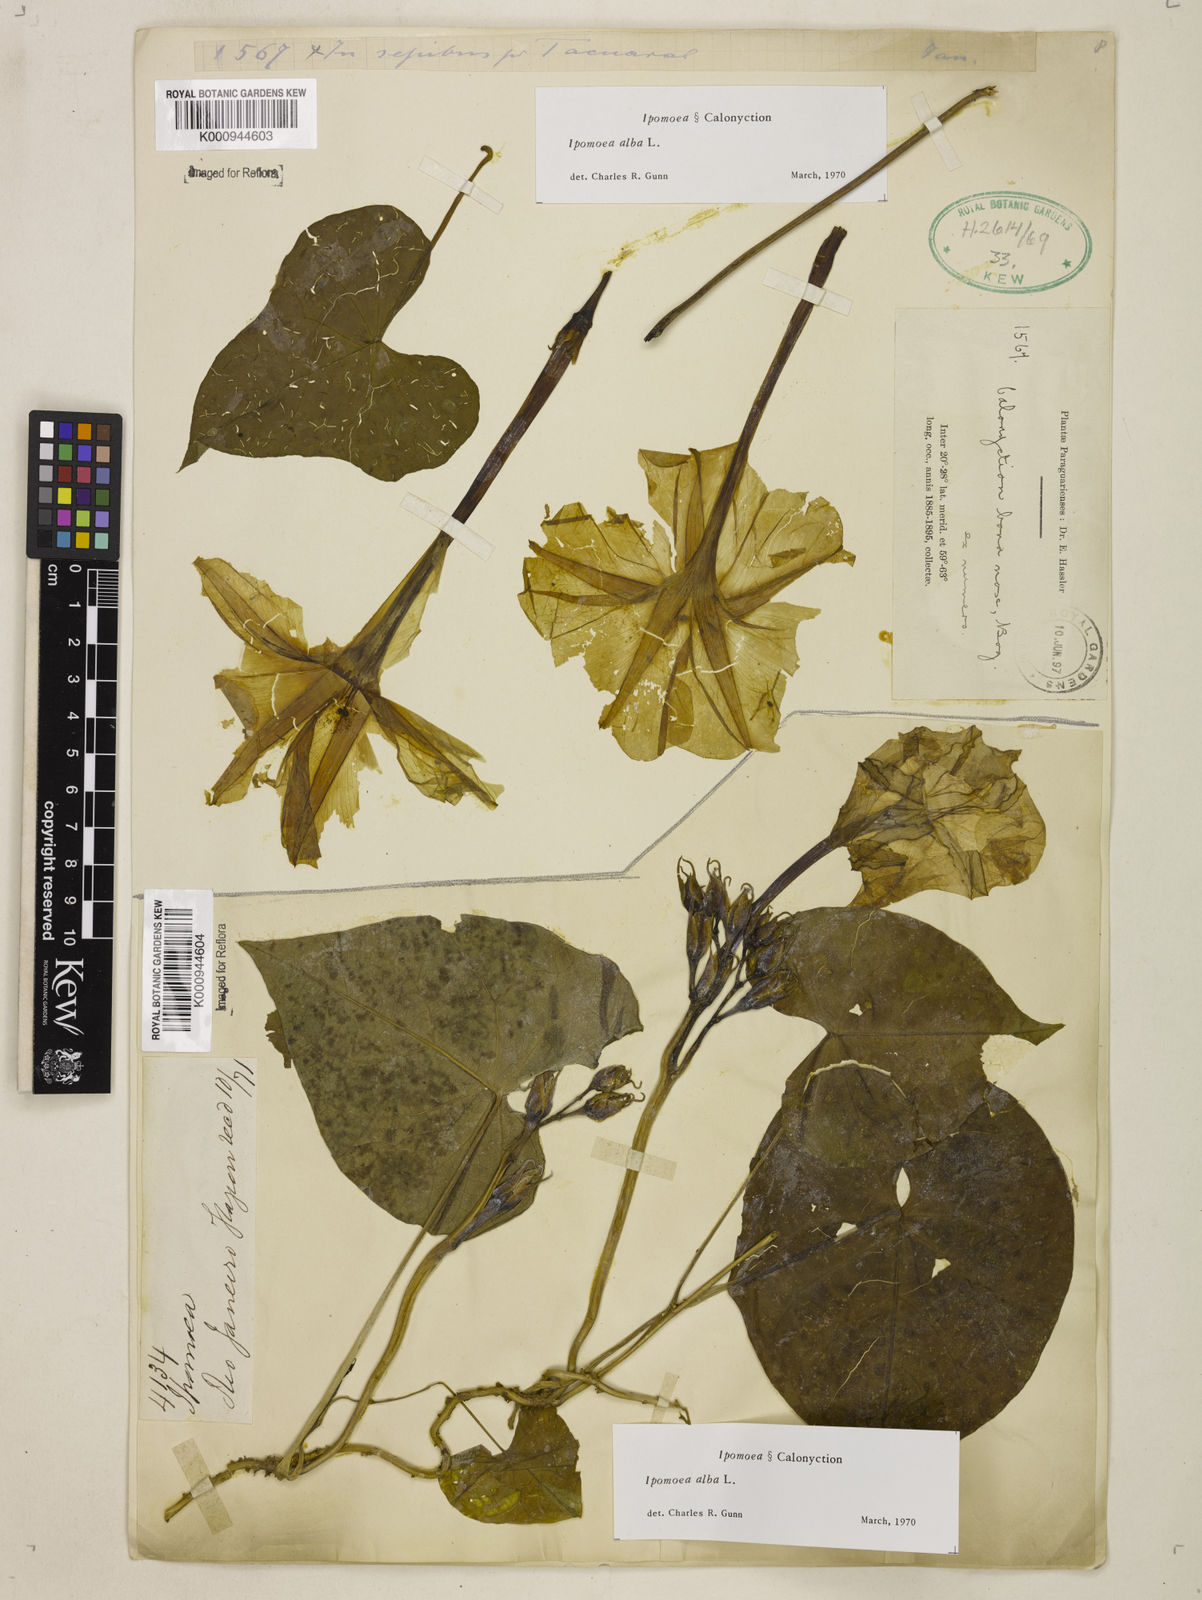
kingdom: Plantae
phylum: Tracheophyta
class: Magnoliopsida
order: Solanales
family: Convolvulaceae
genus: Ipomoea
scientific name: Ipomoea
